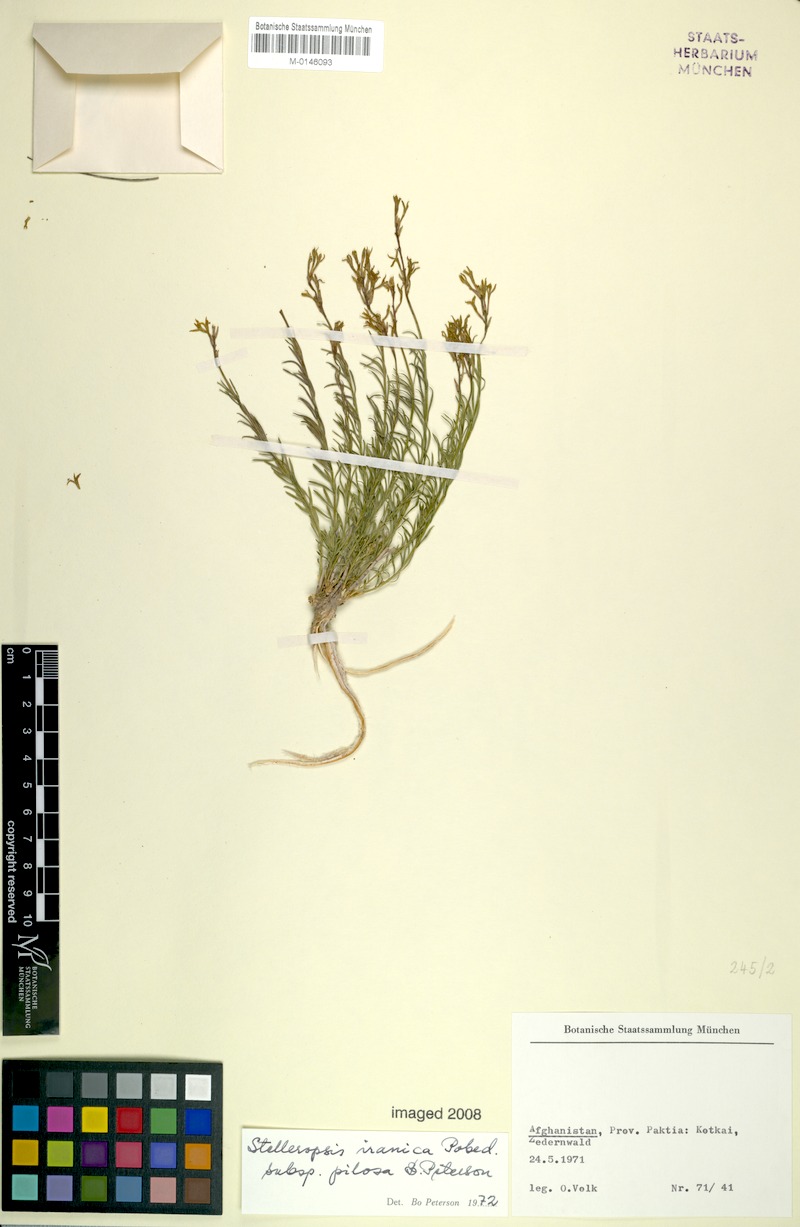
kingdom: Plantae
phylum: Tracheophyta
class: Magnoliopsida
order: Malvales
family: Thymelaeaceae
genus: Diarthron
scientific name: Diarthron iranicum
